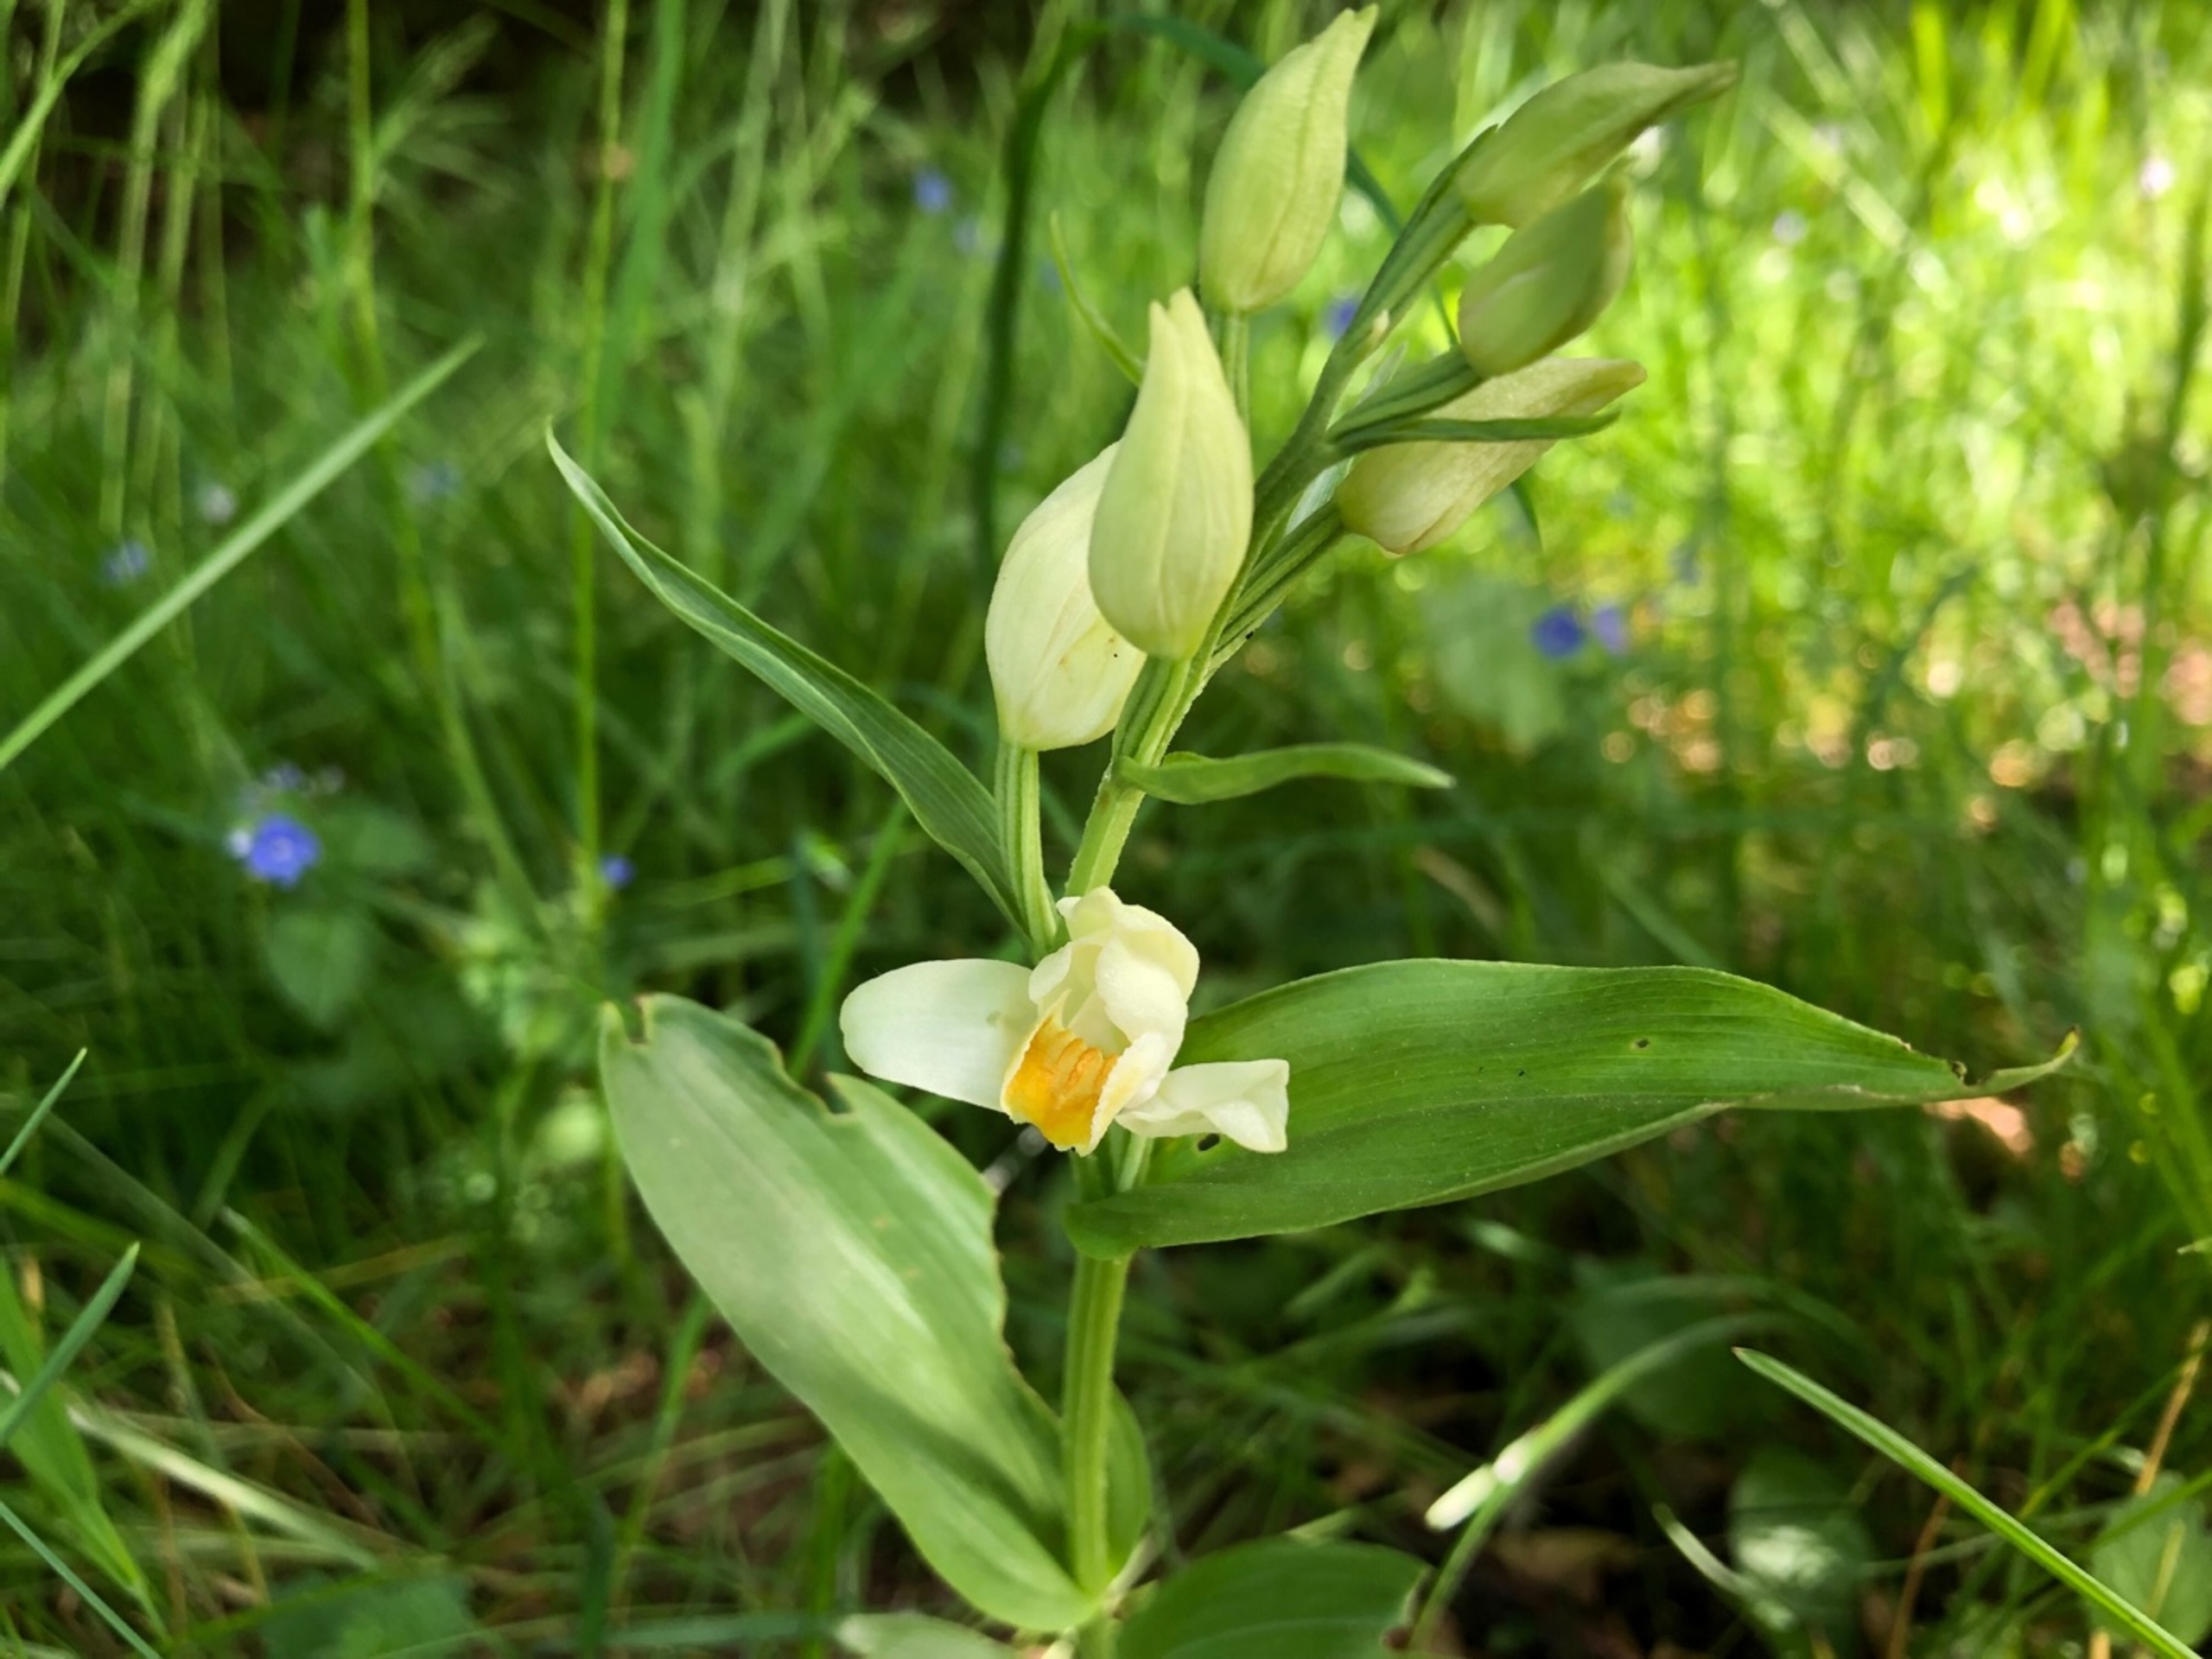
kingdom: Plantae
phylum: Tracheophyta
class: Liliopsida
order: Asparagales
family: Orchidaceae
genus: Cephalanthera
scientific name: Cephalanthera damasonium
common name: Hvidgul skovlilje
